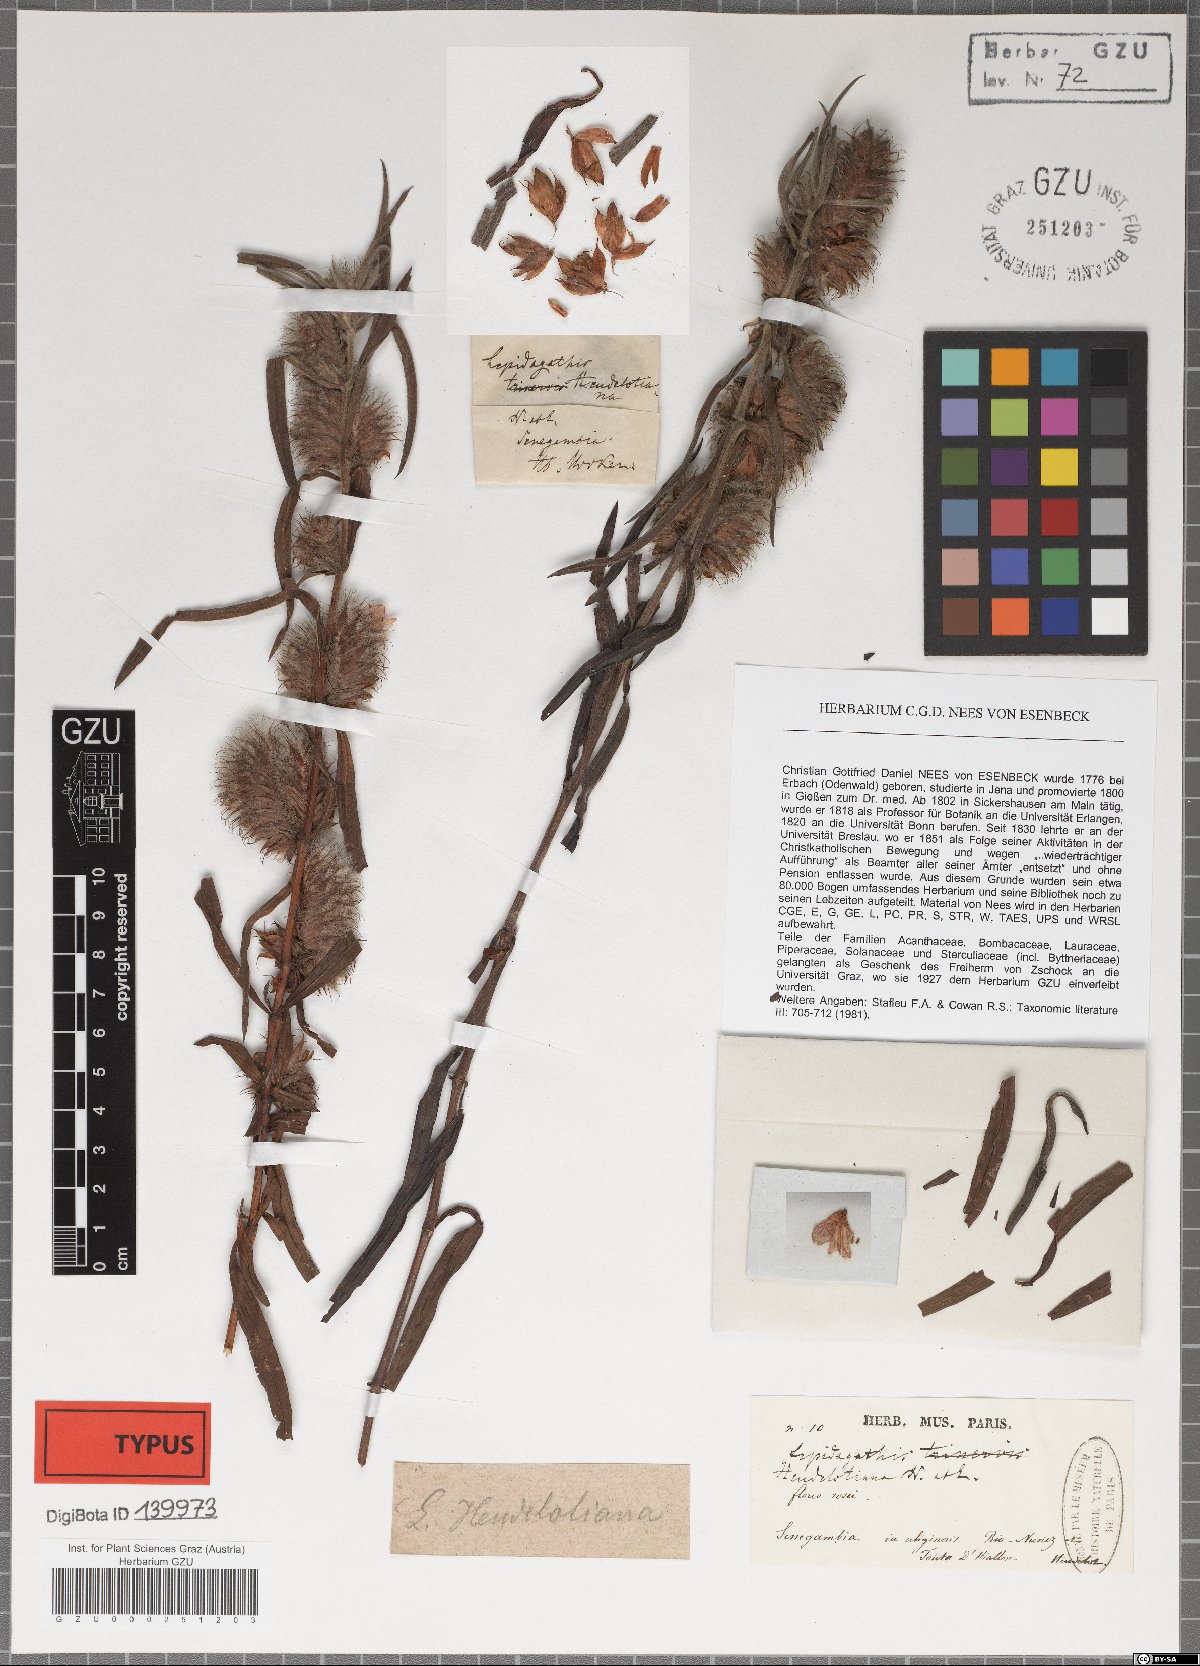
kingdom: Plantae
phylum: Tracheophyta
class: Magnoliopsida
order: Lamiales
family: Acanthaceae
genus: Lepidagathis
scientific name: Lepidagathis heudelotiana
